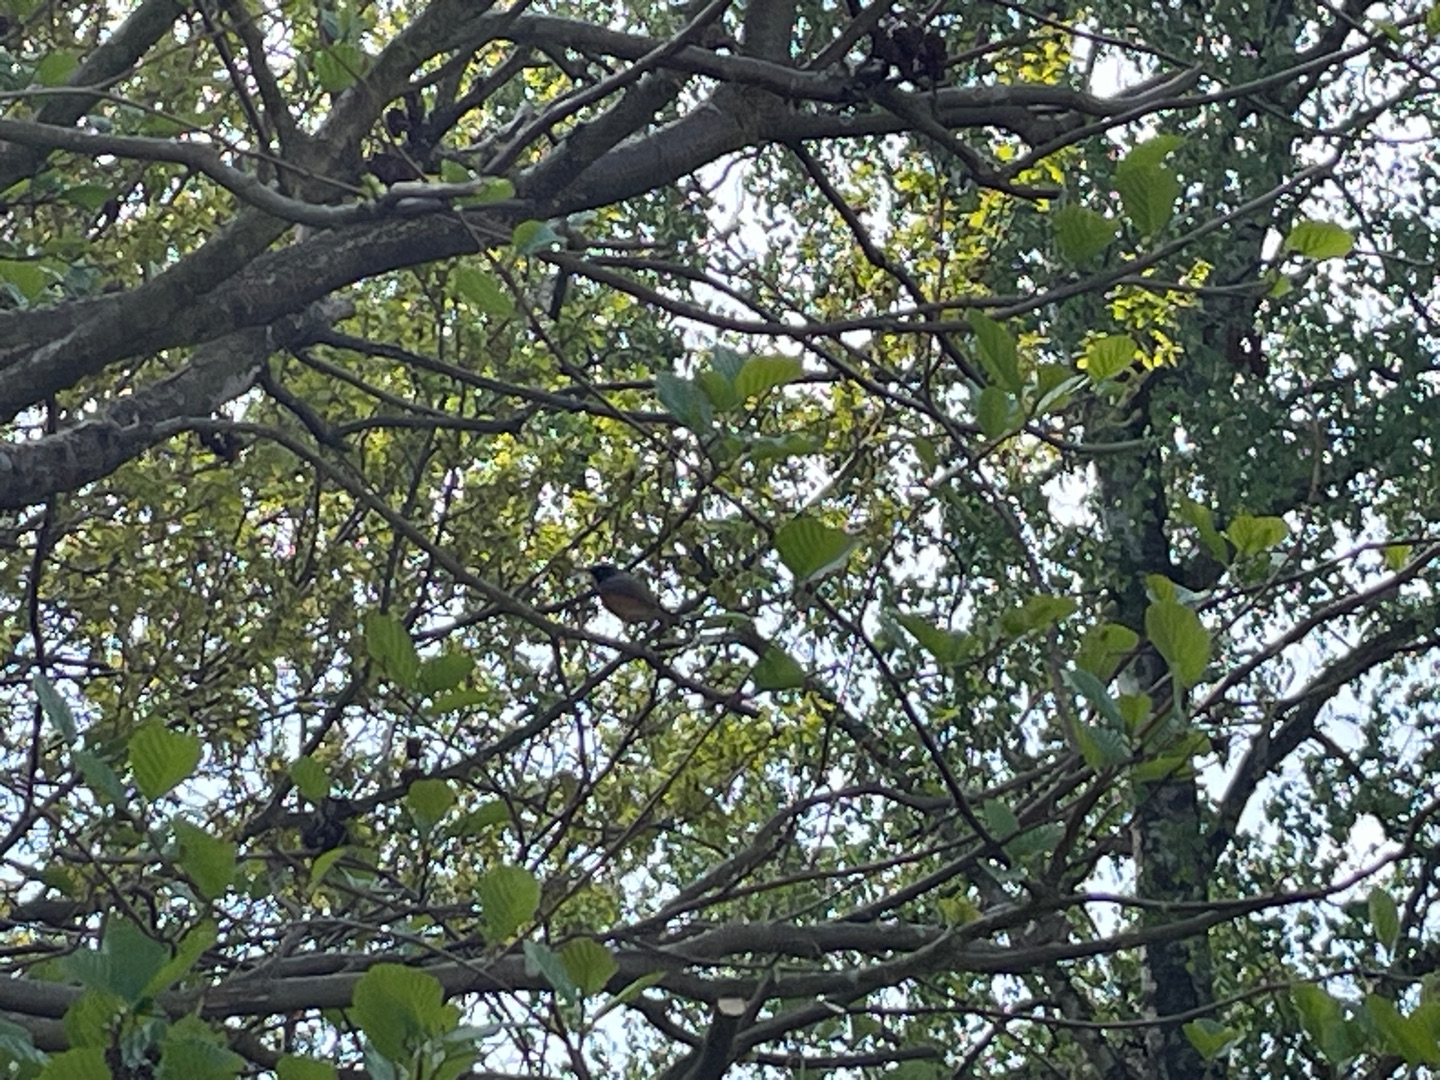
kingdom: Animalia
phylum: Chordata
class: Aves
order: Passeriformes
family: Muscicapidae
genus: Phoenicurus
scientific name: Phoenicurus phoenicurus
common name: Rødstjert
